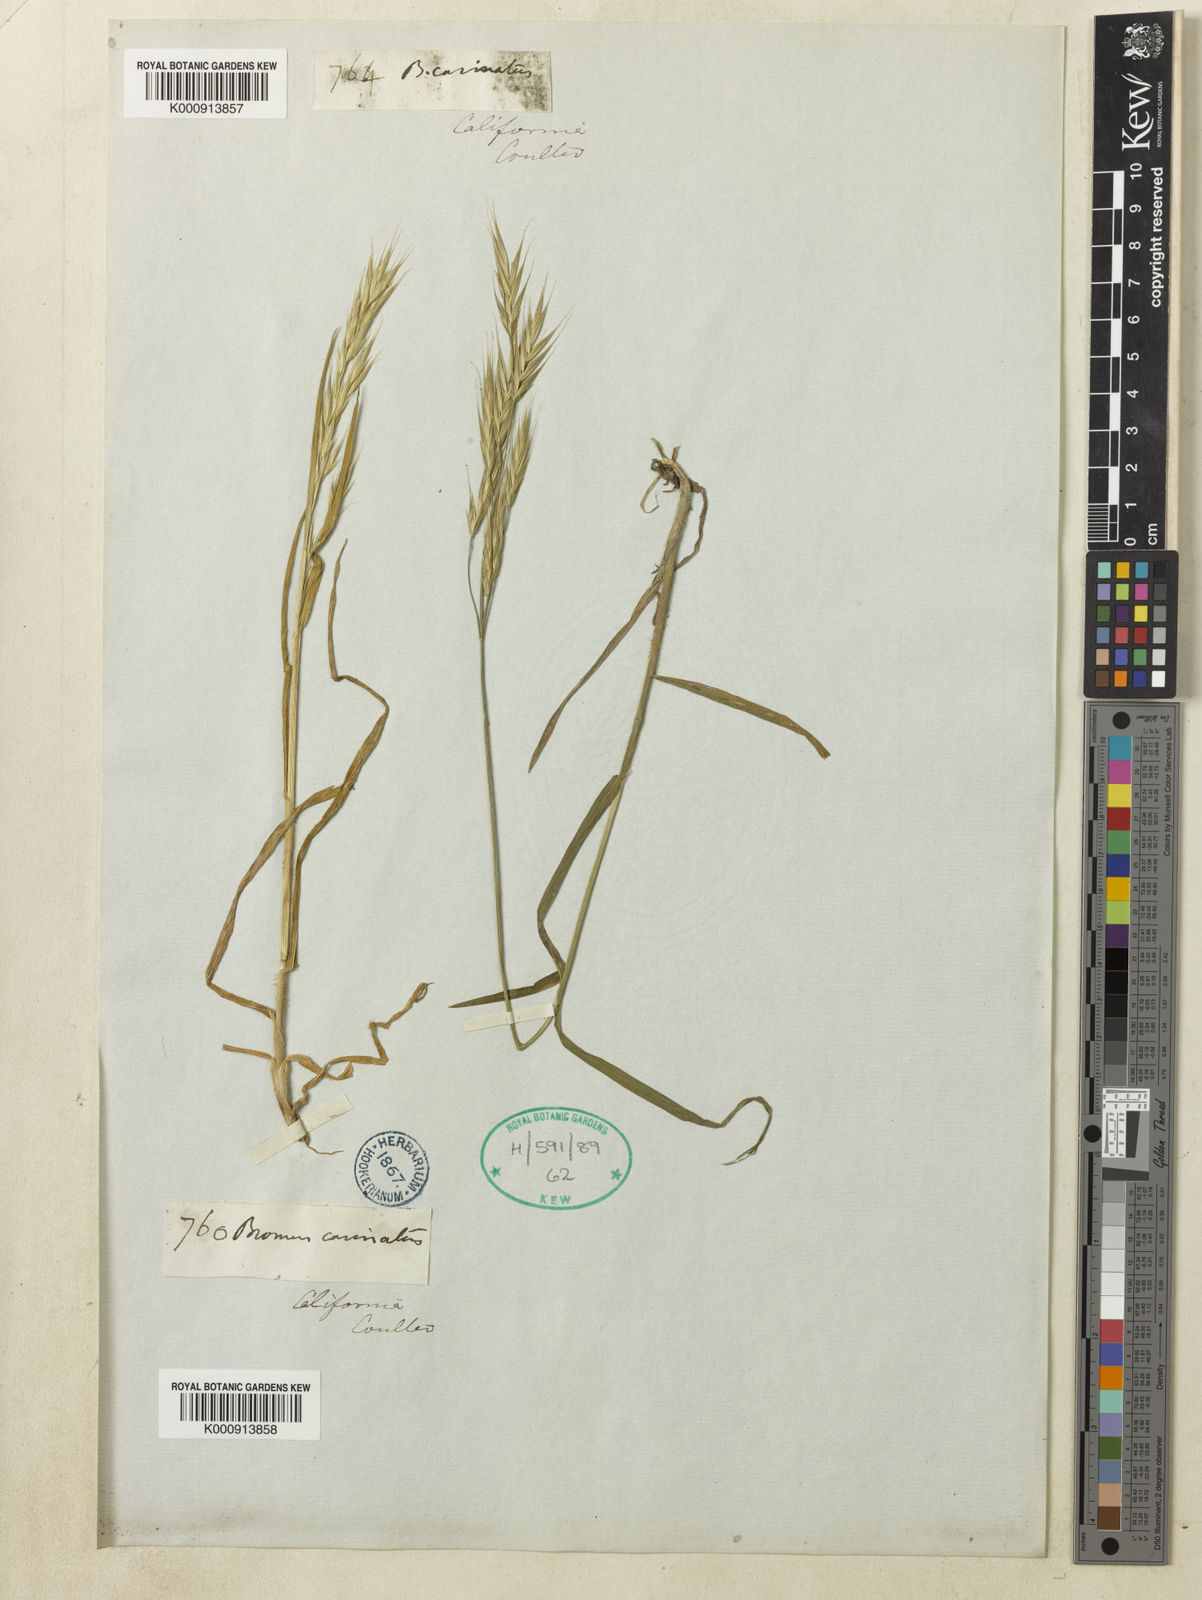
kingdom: Plantae
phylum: Tracheophyta
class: Liliopsida
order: Poales
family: Poaceae
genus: Bromus
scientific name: Bromus carinatus
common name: Mountain brome
